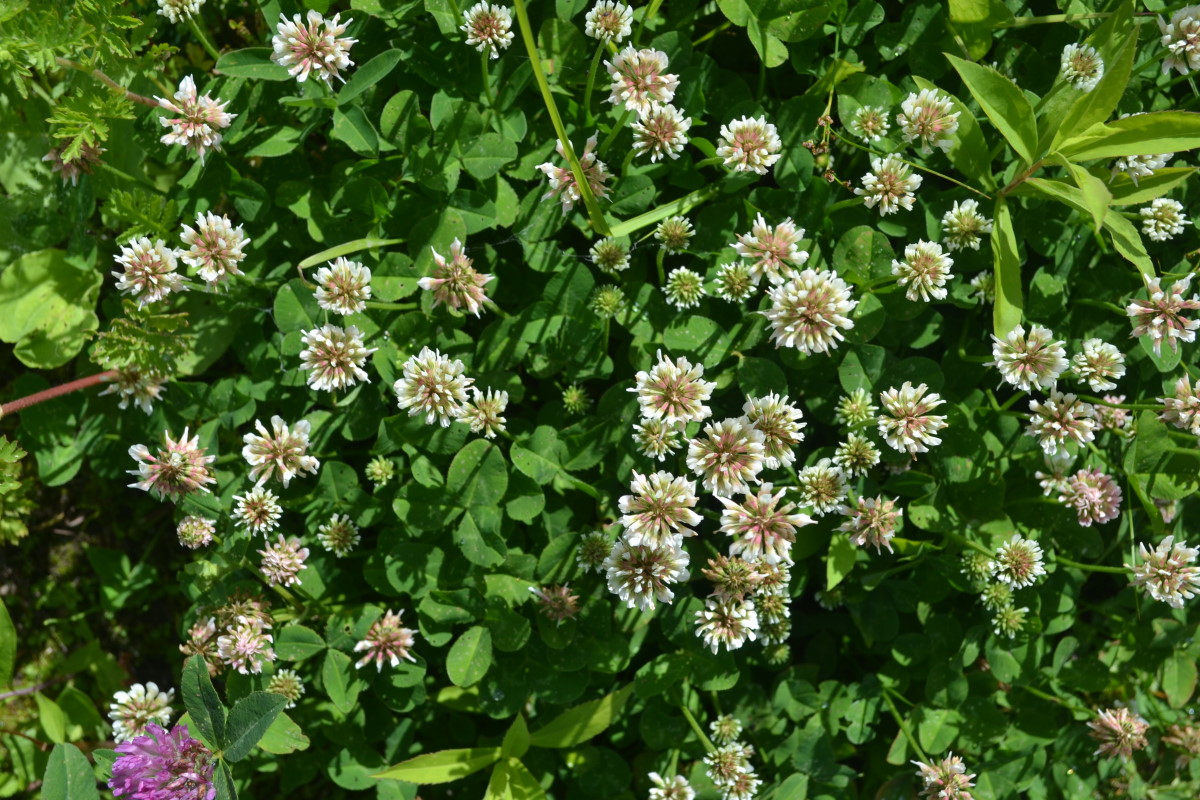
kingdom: Plantae
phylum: Tracheophyta
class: Magnoliopsida
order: Fabales
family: Fabaceae
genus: Trifolium
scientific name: Trifolium repens
